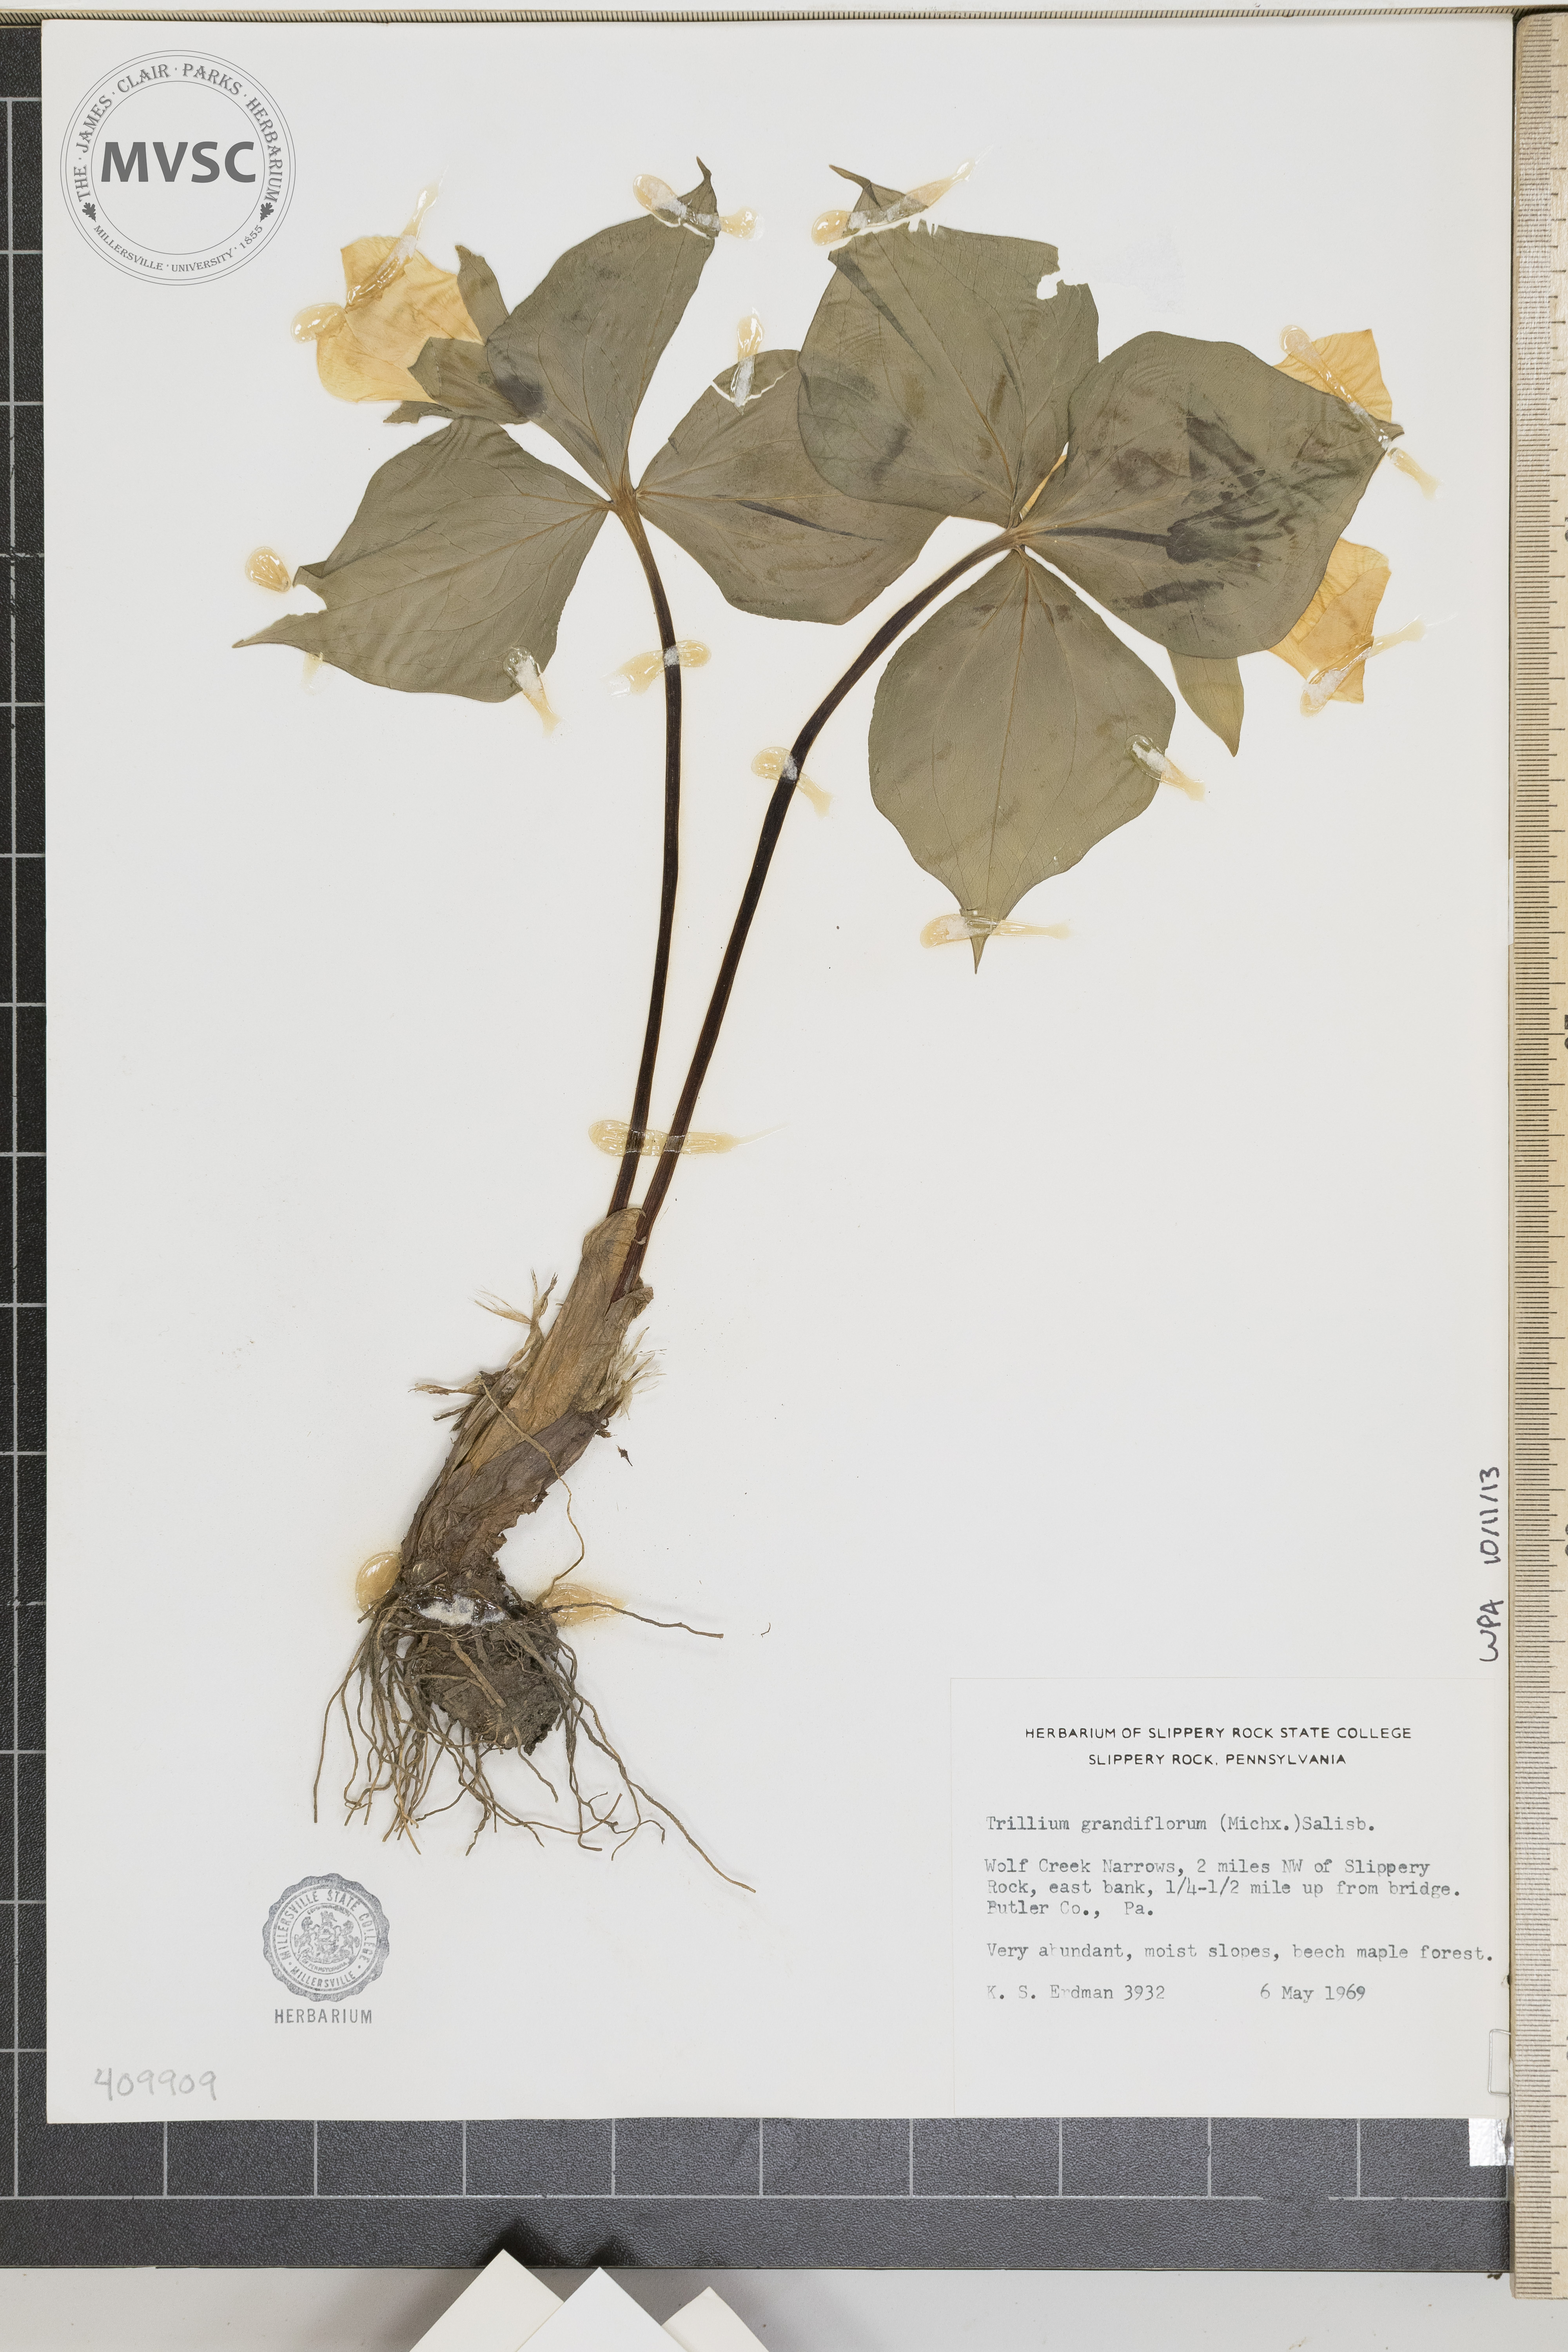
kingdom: Plantae
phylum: Tracheophyta
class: Liliopsida
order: Liliales
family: Melanthiaceae
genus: Trillium
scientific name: Trillium grandiflorum
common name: Great white trillium
